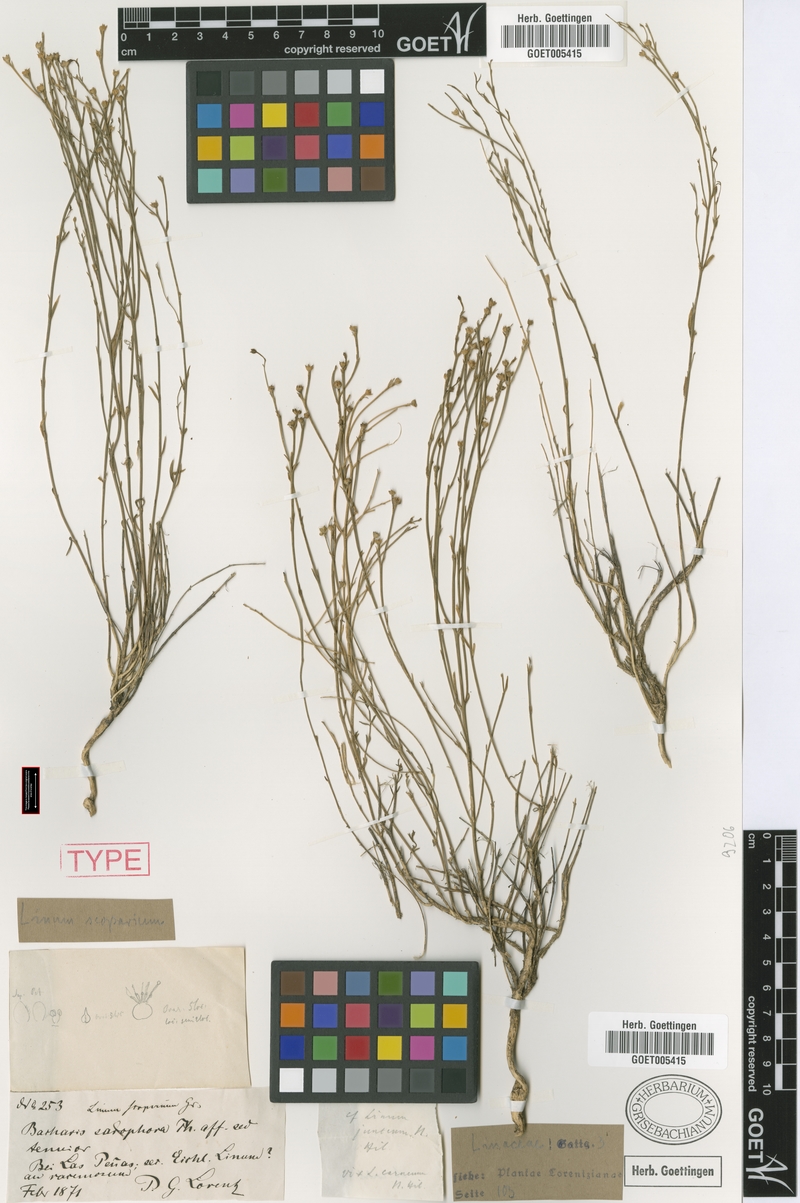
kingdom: Plantae
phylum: Tracheophyta
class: Magnoliopsida
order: Malpighiales
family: Linaceae
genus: Linum
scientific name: Linum scoparium
